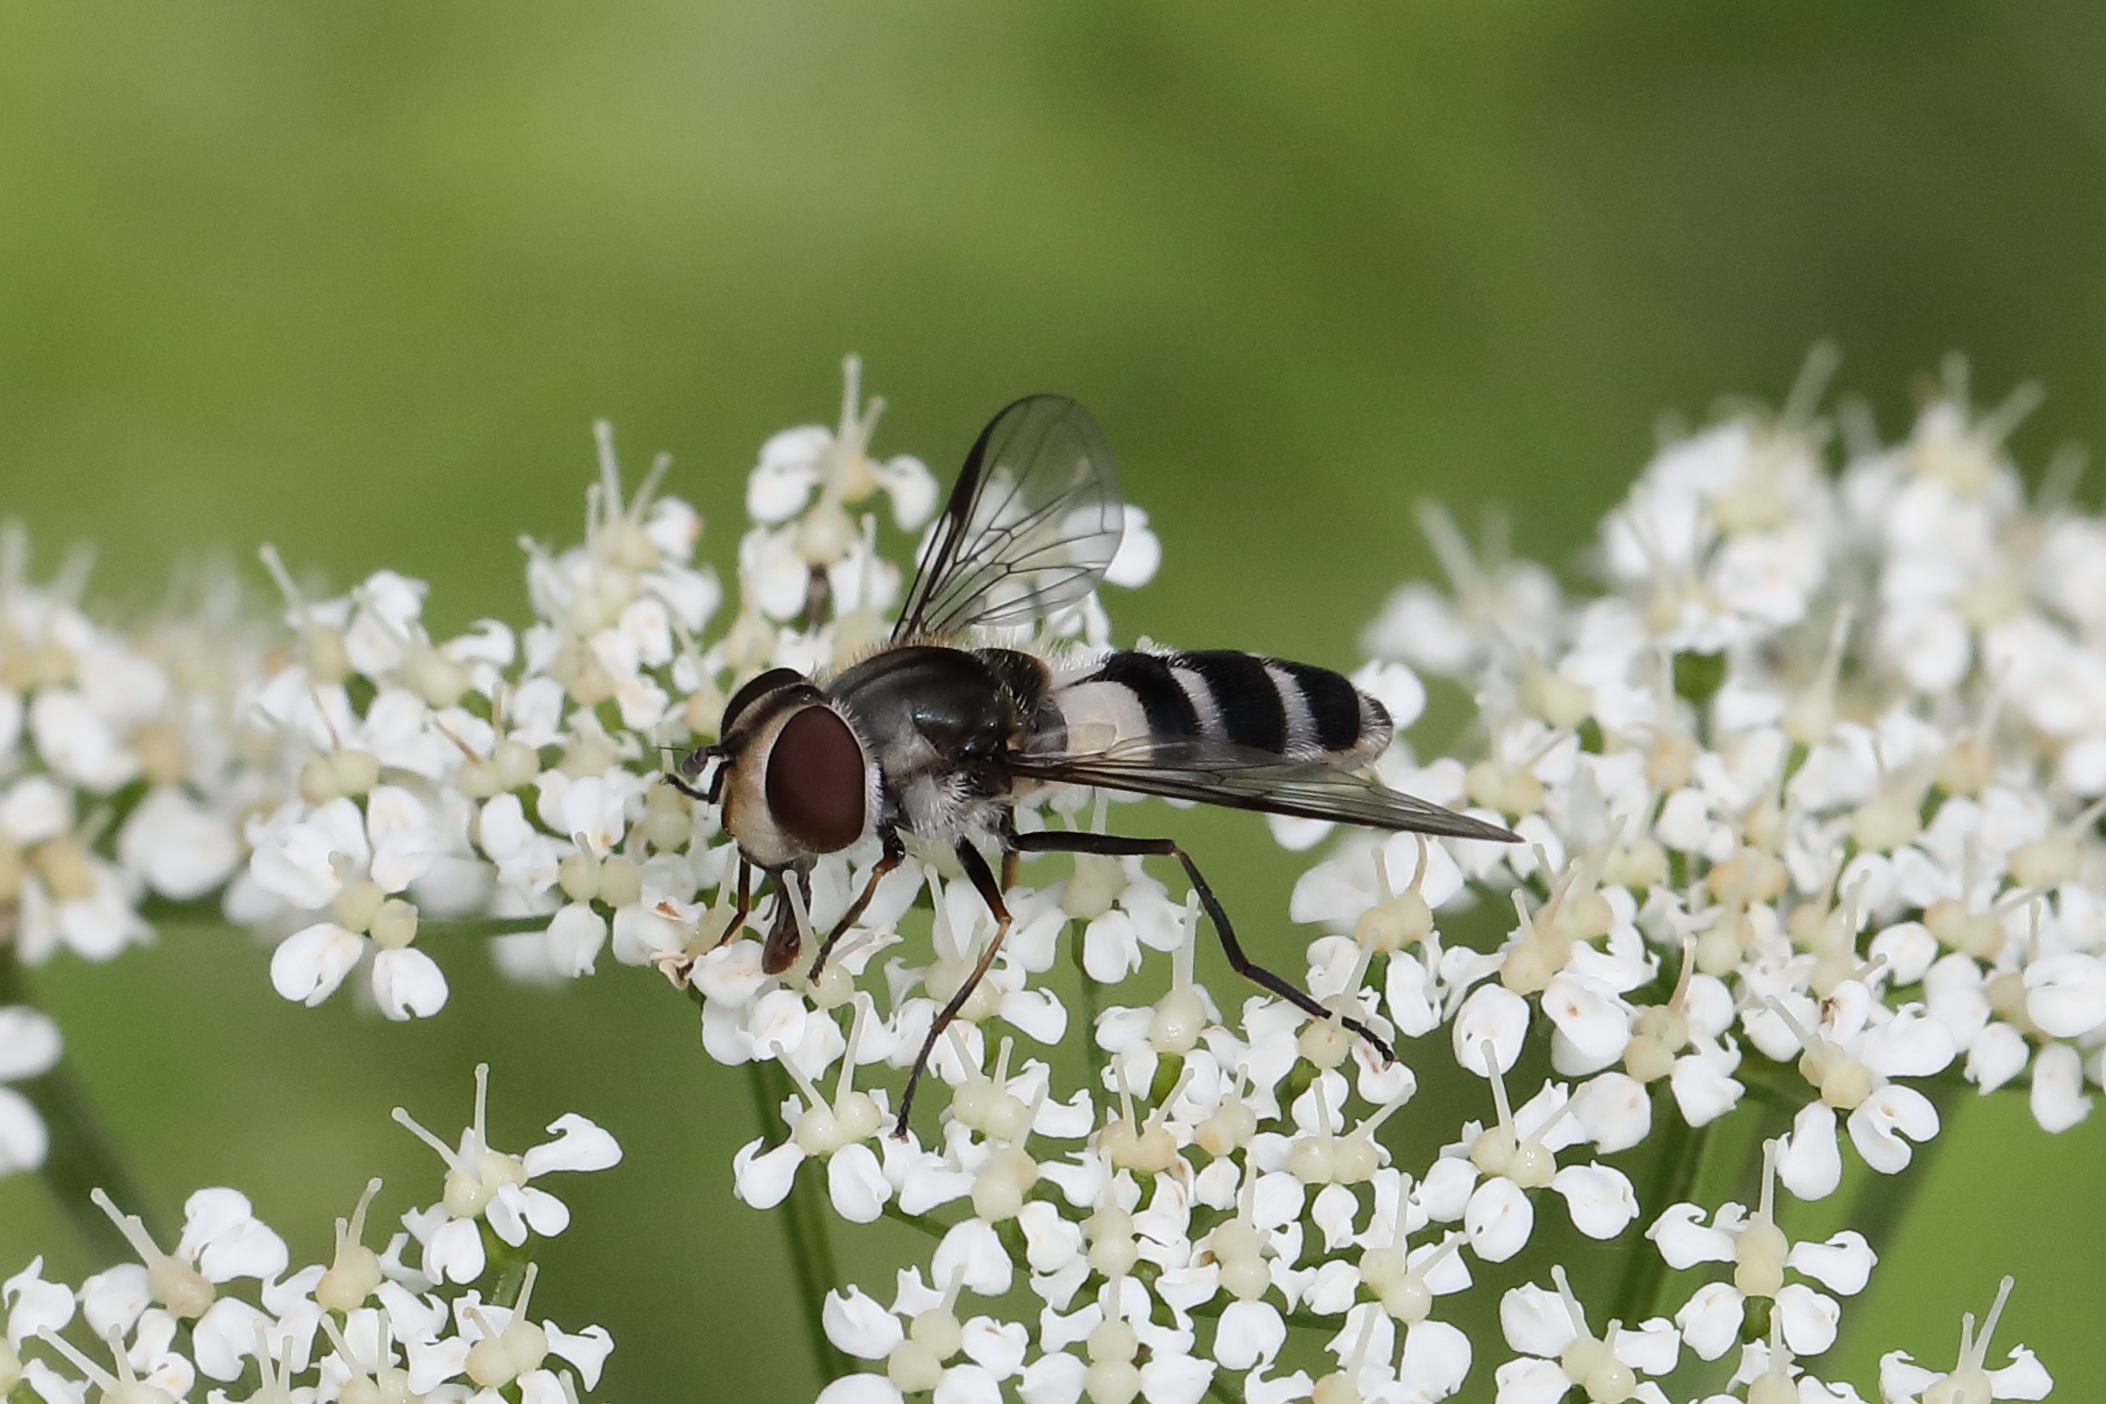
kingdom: Animalia
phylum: Arthropoda
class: Insecta
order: Diptera
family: Syrphidae
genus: Leucozona
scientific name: Leucozona laternaria
